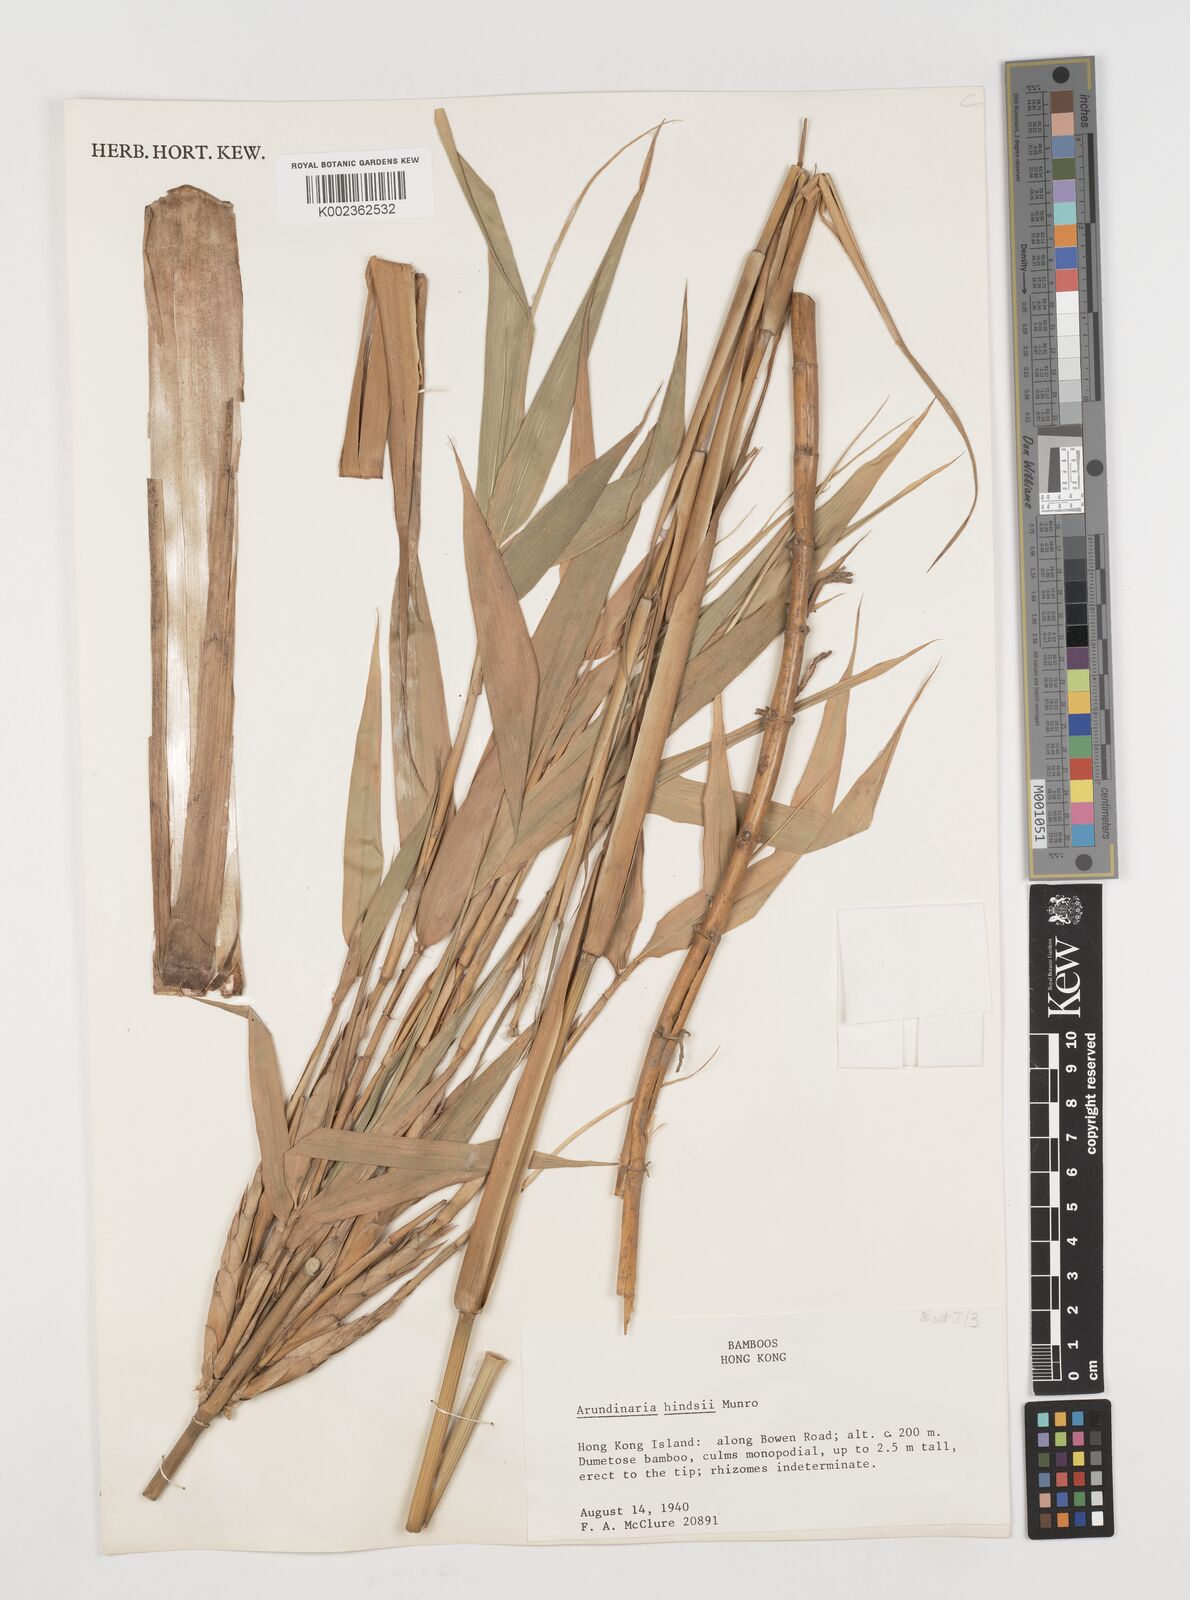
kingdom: Plantae
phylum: Tracheophyta
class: Liliopsida
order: Poales
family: Poaceae
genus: Pseudosasa
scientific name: Pseudosasa hindsii
